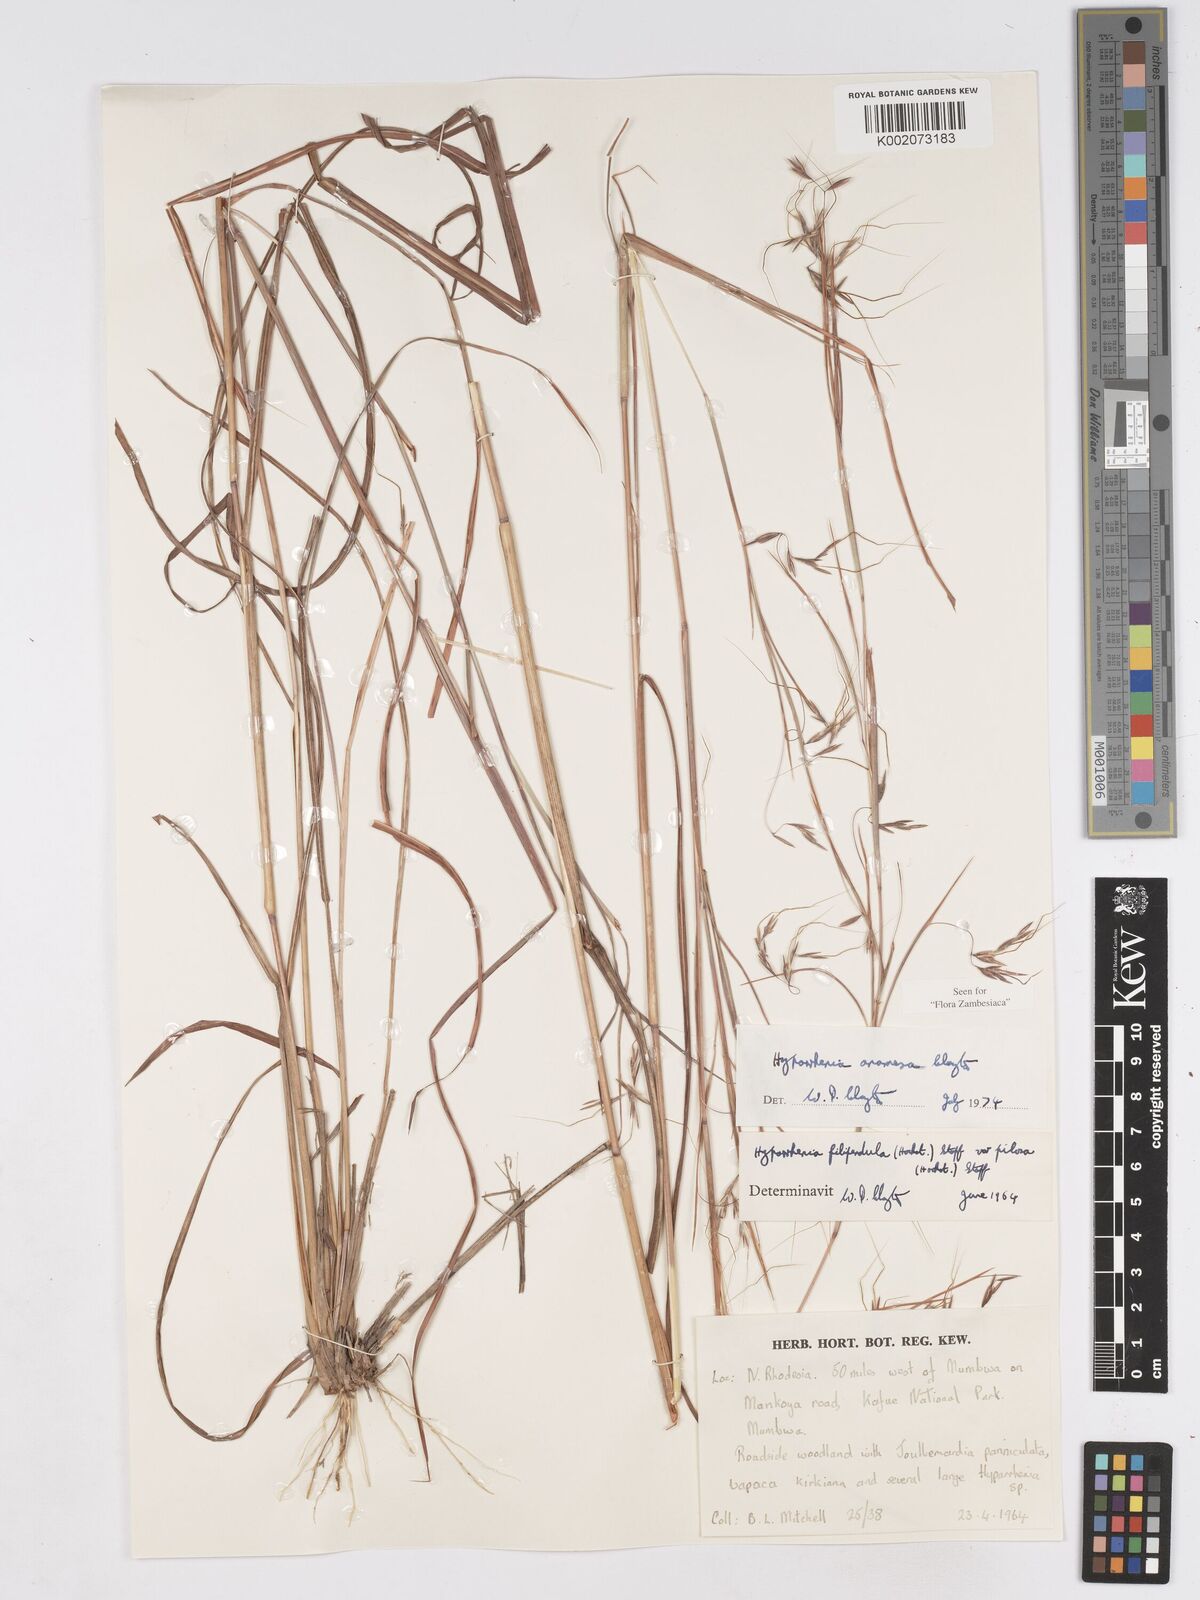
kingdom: Plantae
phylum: Tracheophyta
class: Liliopsida
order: Poales
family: Poaceae
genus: Hyparrhenia
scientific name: Hyparrhenia anamesa
